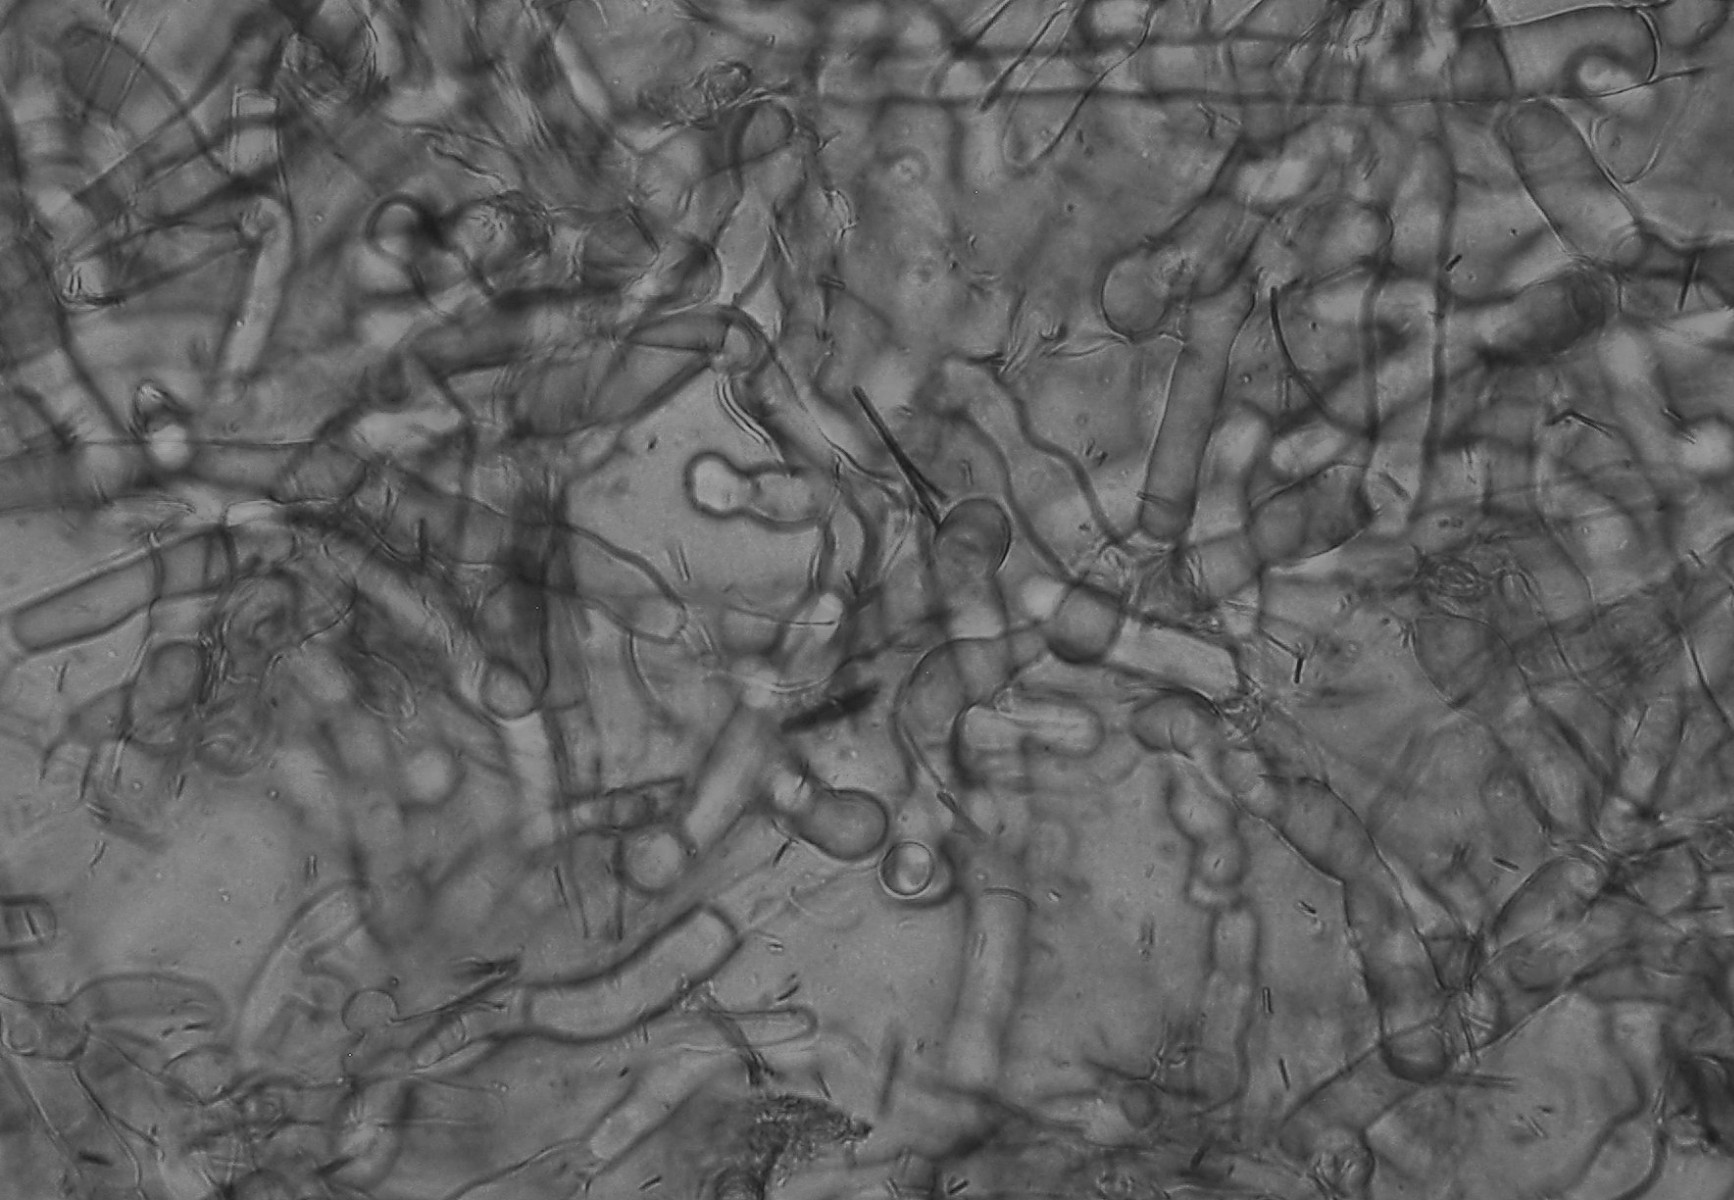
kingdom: Fungi
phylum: Basidiomycota
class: Agaricomycetes
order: Corticiales
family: Corticiaceae
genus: Erythricium
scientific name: Erythricium laetum
